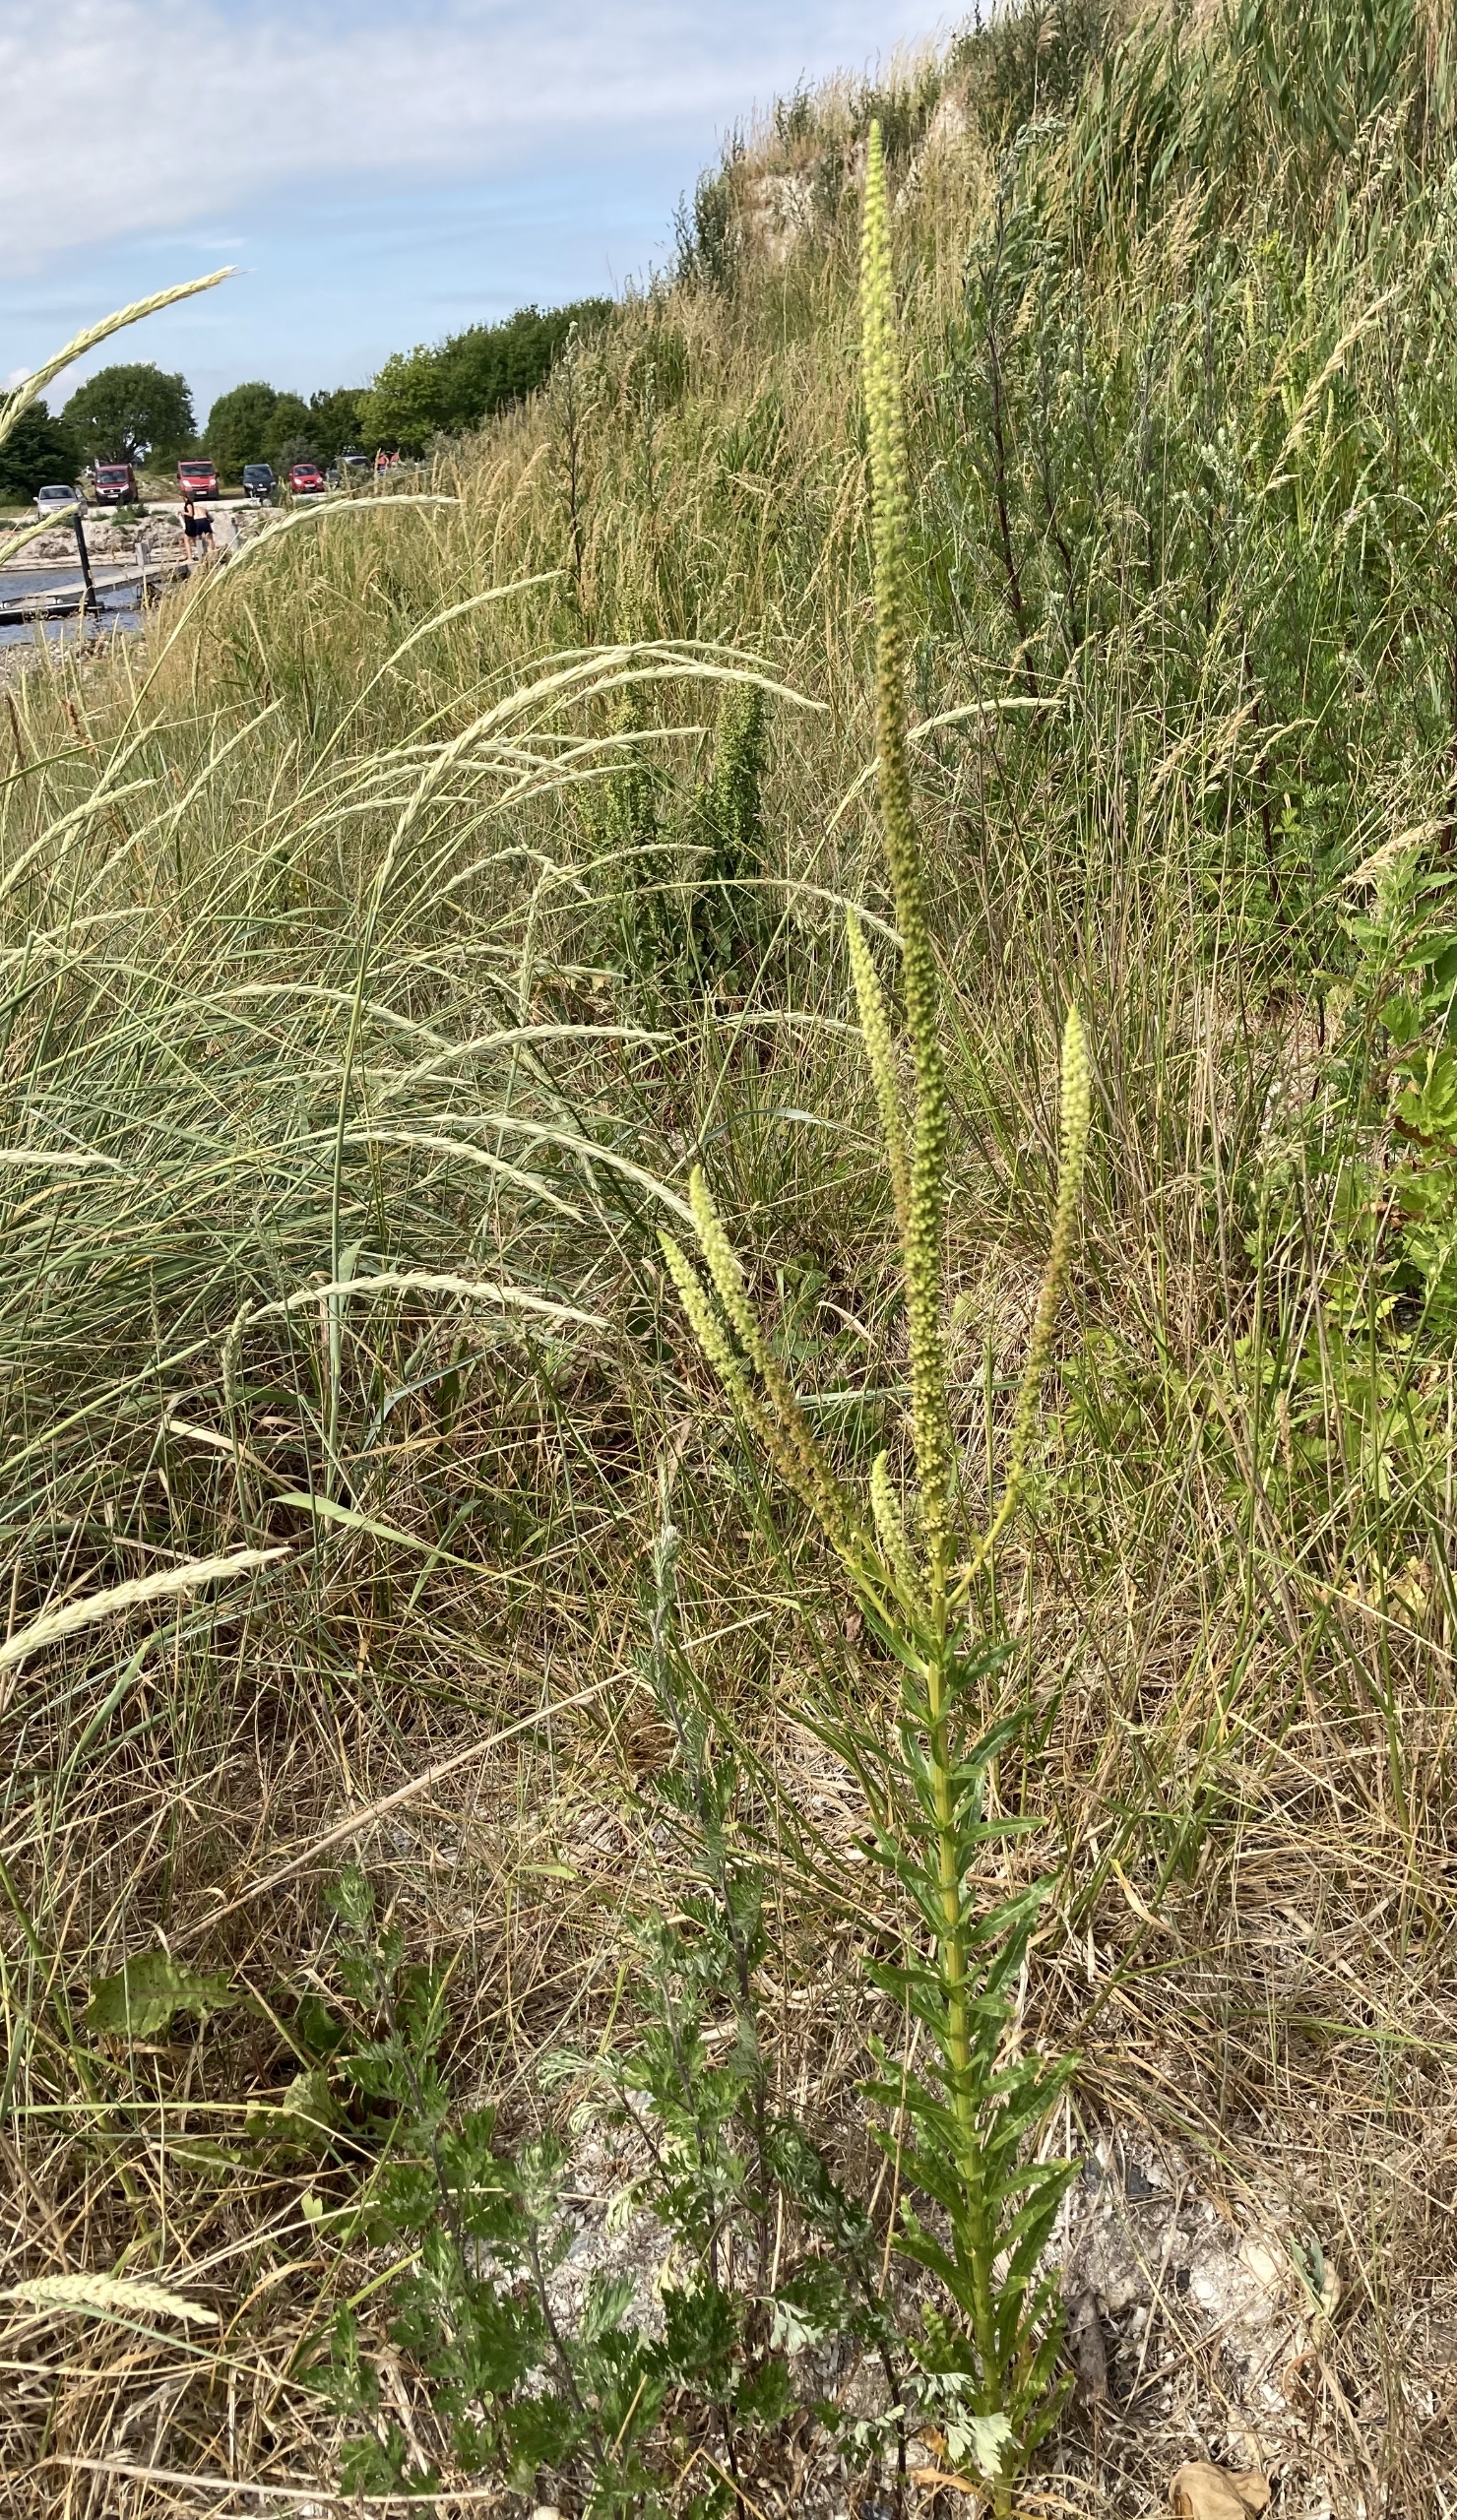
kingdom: Plantae
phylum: Tracheophyta
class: Magnoliopsida
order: Brassicales
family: Resedaceae
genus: Reseda
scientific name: Reseda luteola
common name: Farve-reseda
